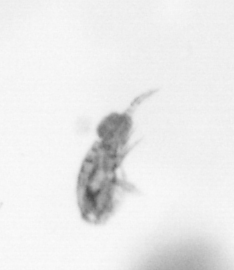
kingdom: Animalia
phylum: Arthropoda
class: Copepoda
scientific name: Copepoda
